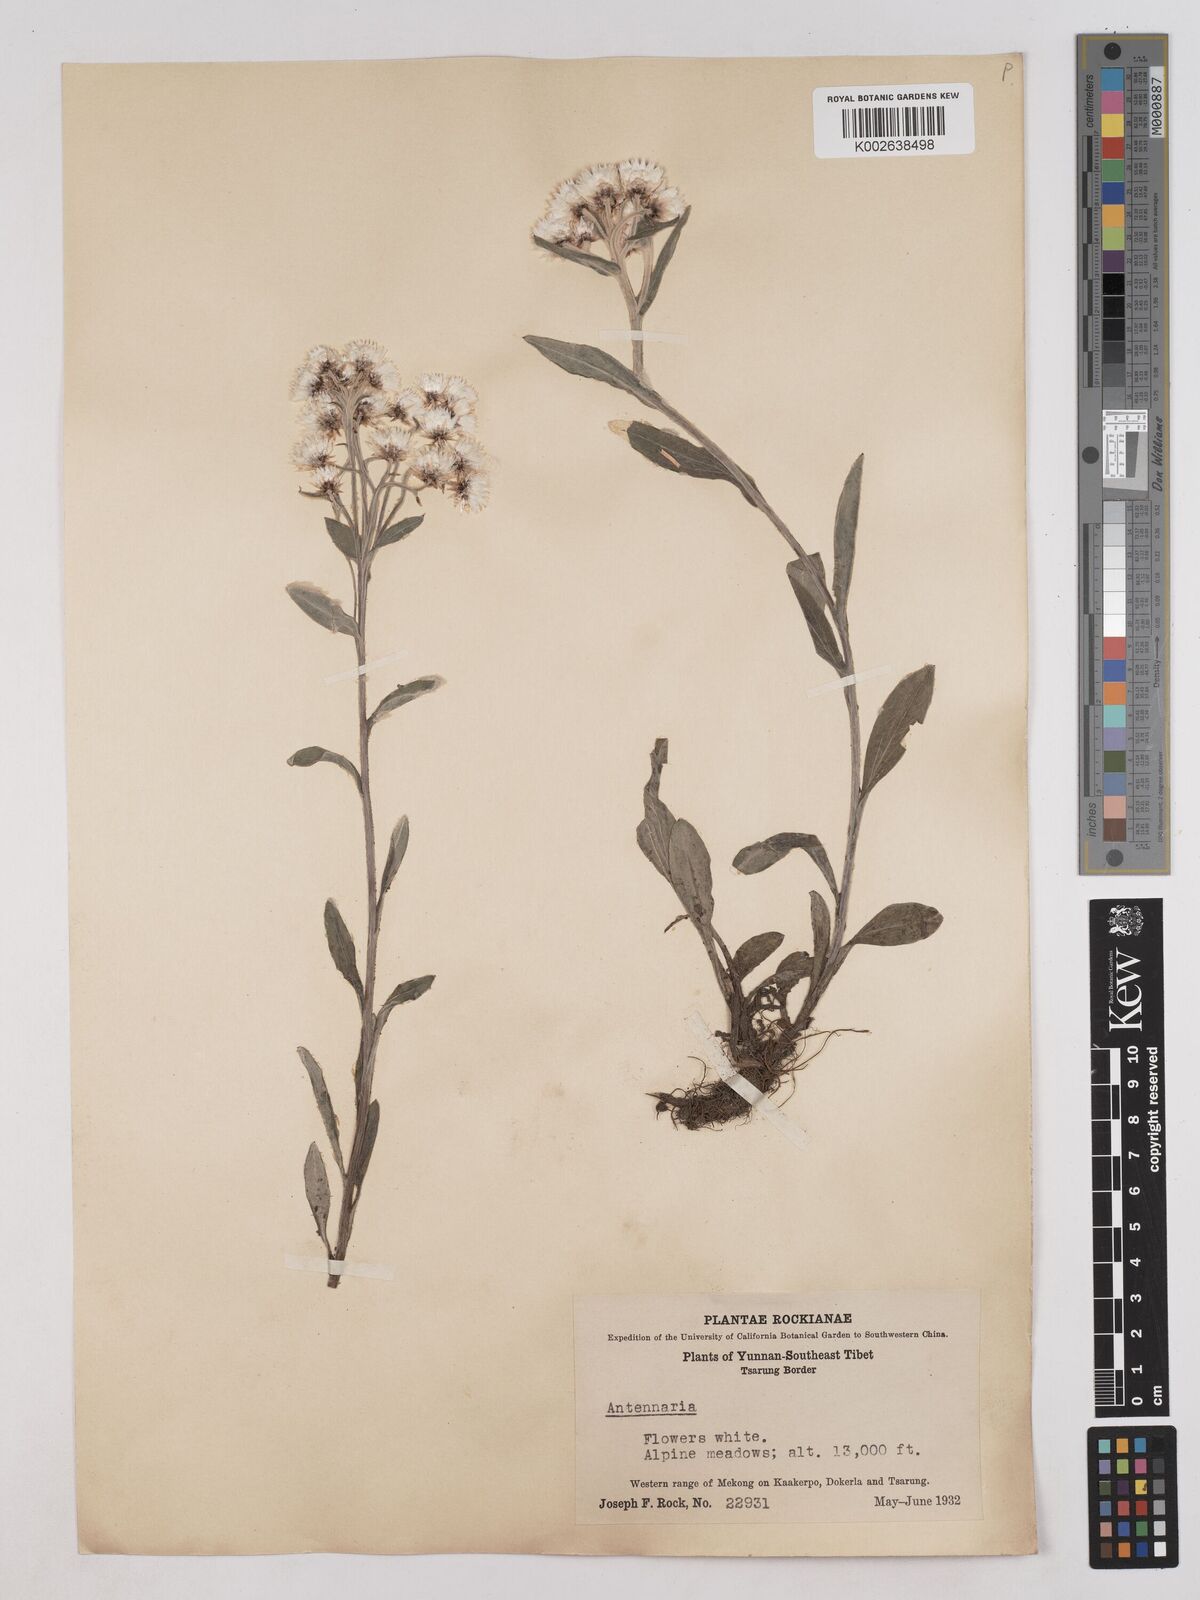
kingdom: Plantae
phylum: Tracheophyta
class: Magnoliopsida
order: Asterales
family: Asteraceae
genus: Anaphalis
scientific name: Anaphalis nepalensis
